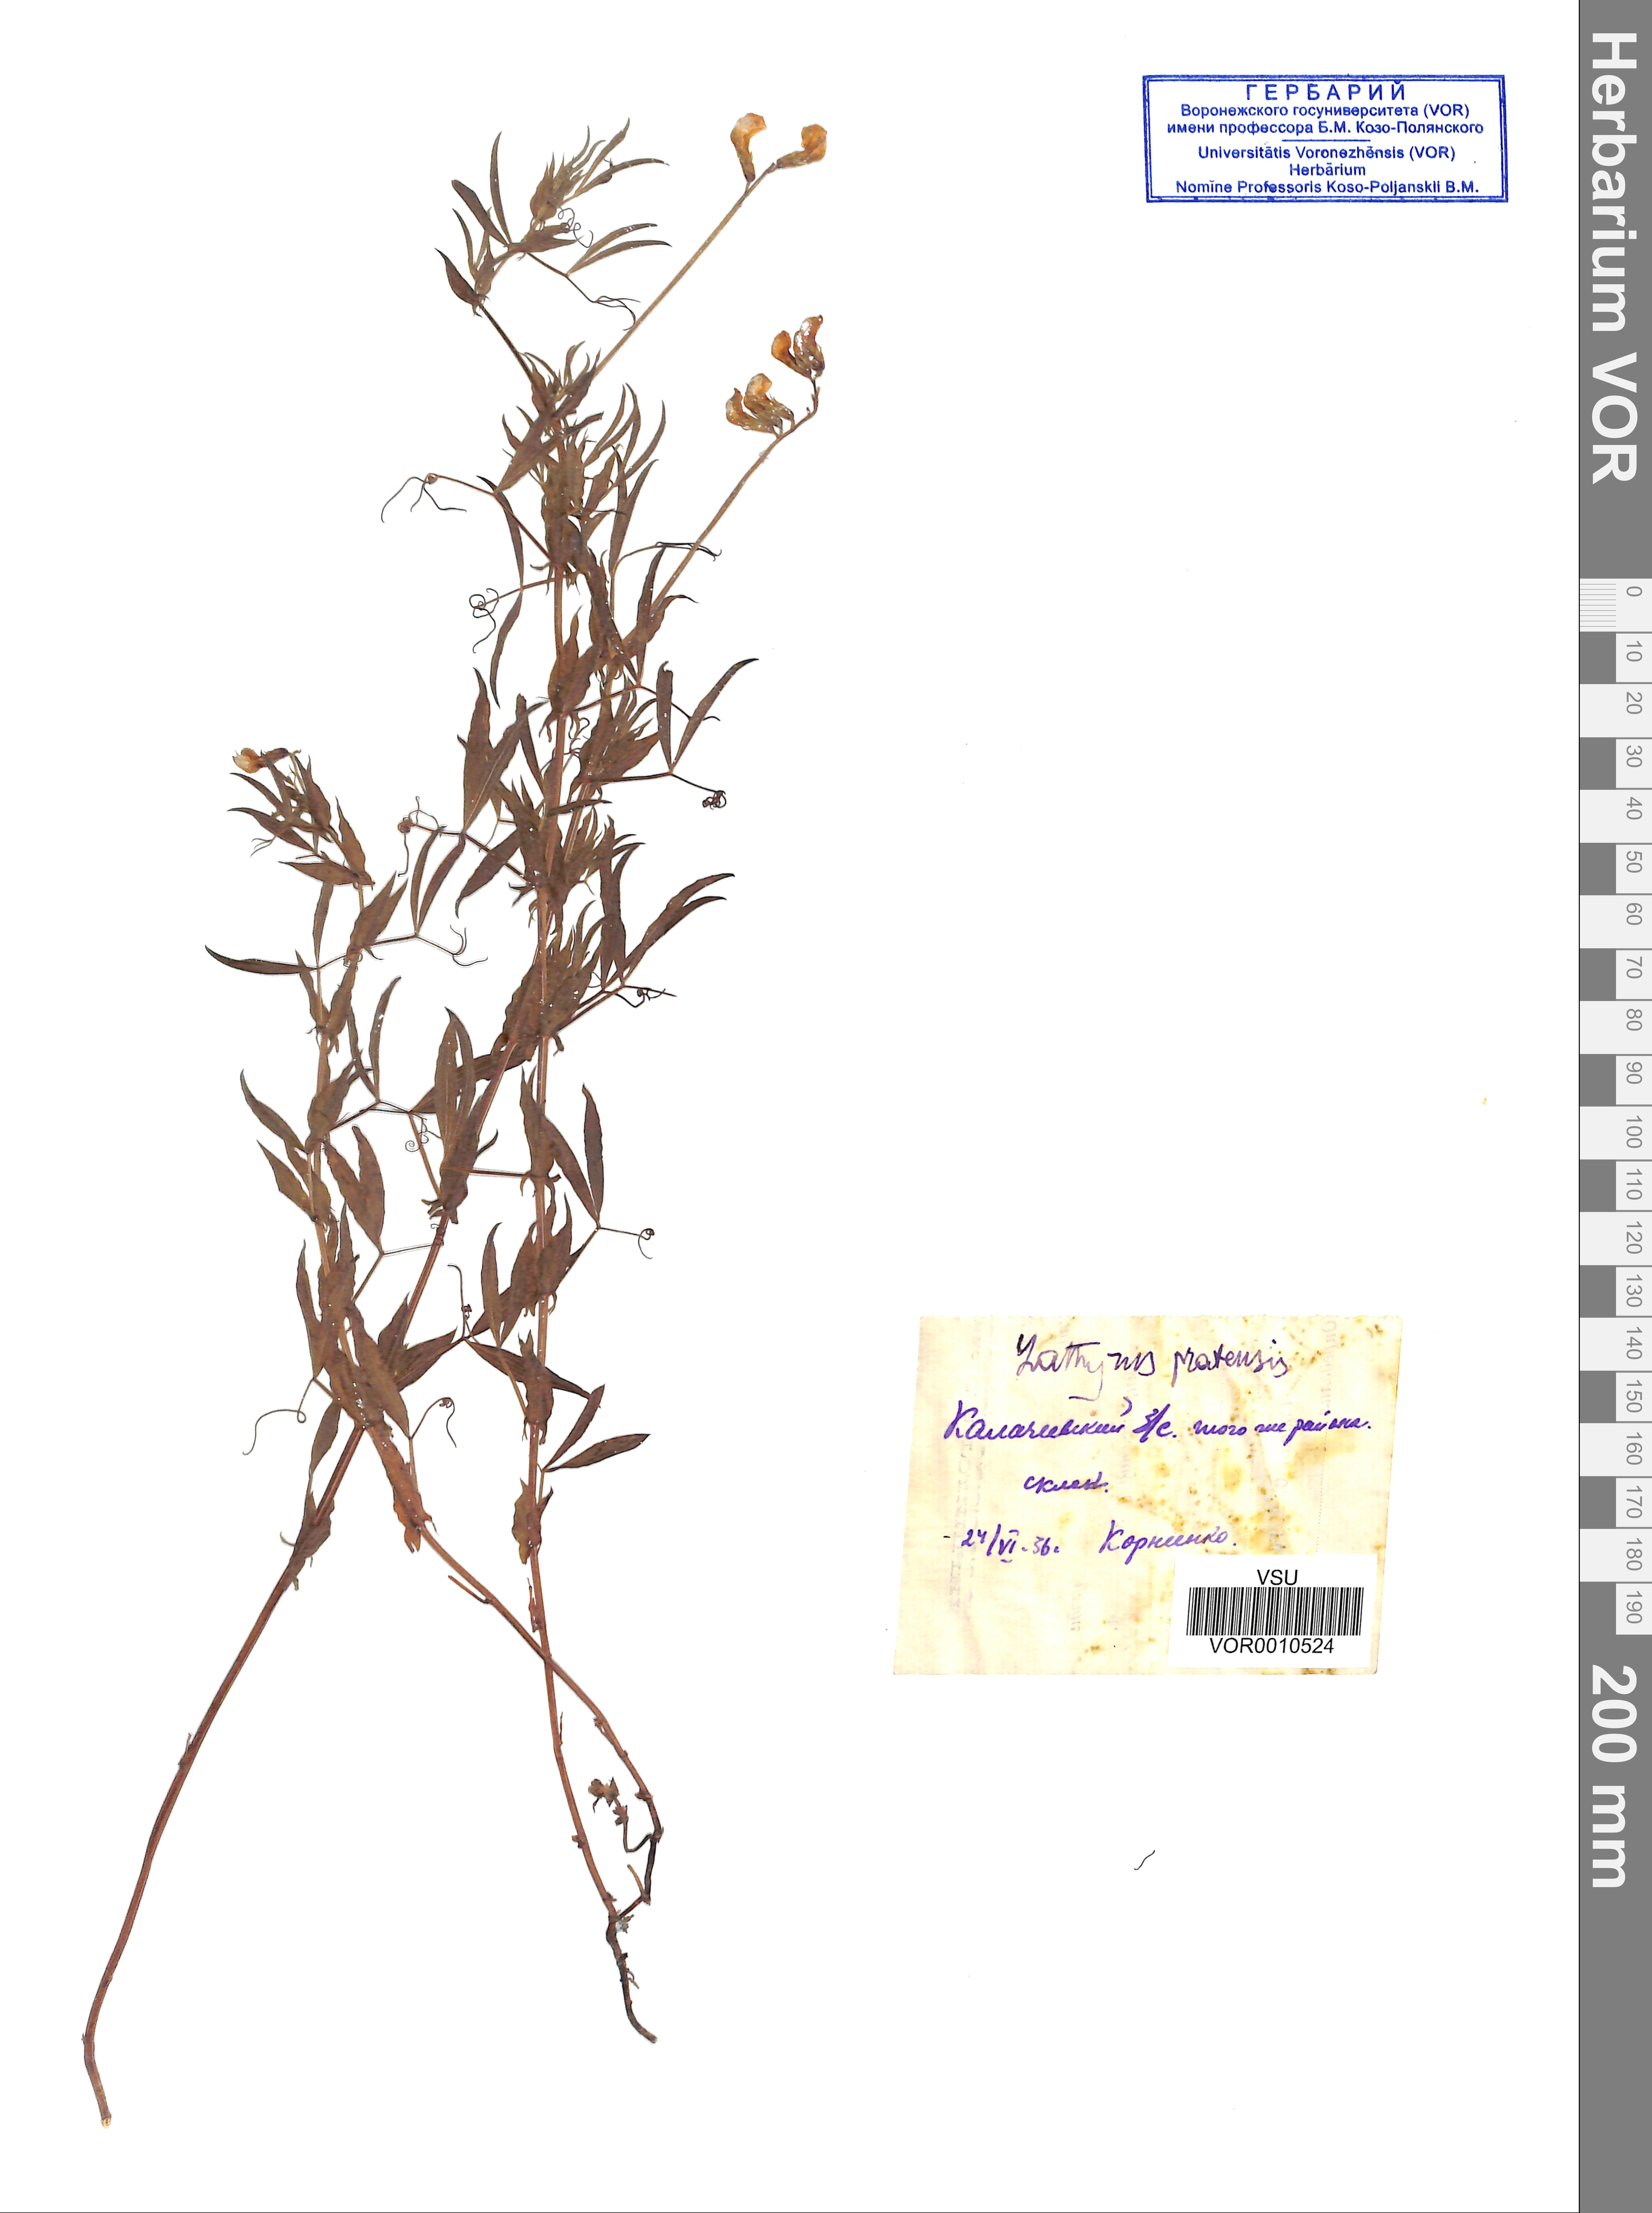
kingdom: Plantae
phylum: Tracheophyta
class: Magnoliopsida
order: Fabales
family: Fabaceae
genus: Lathyrus
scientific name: Lathyrus pratensis
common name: Meadow vetchling
